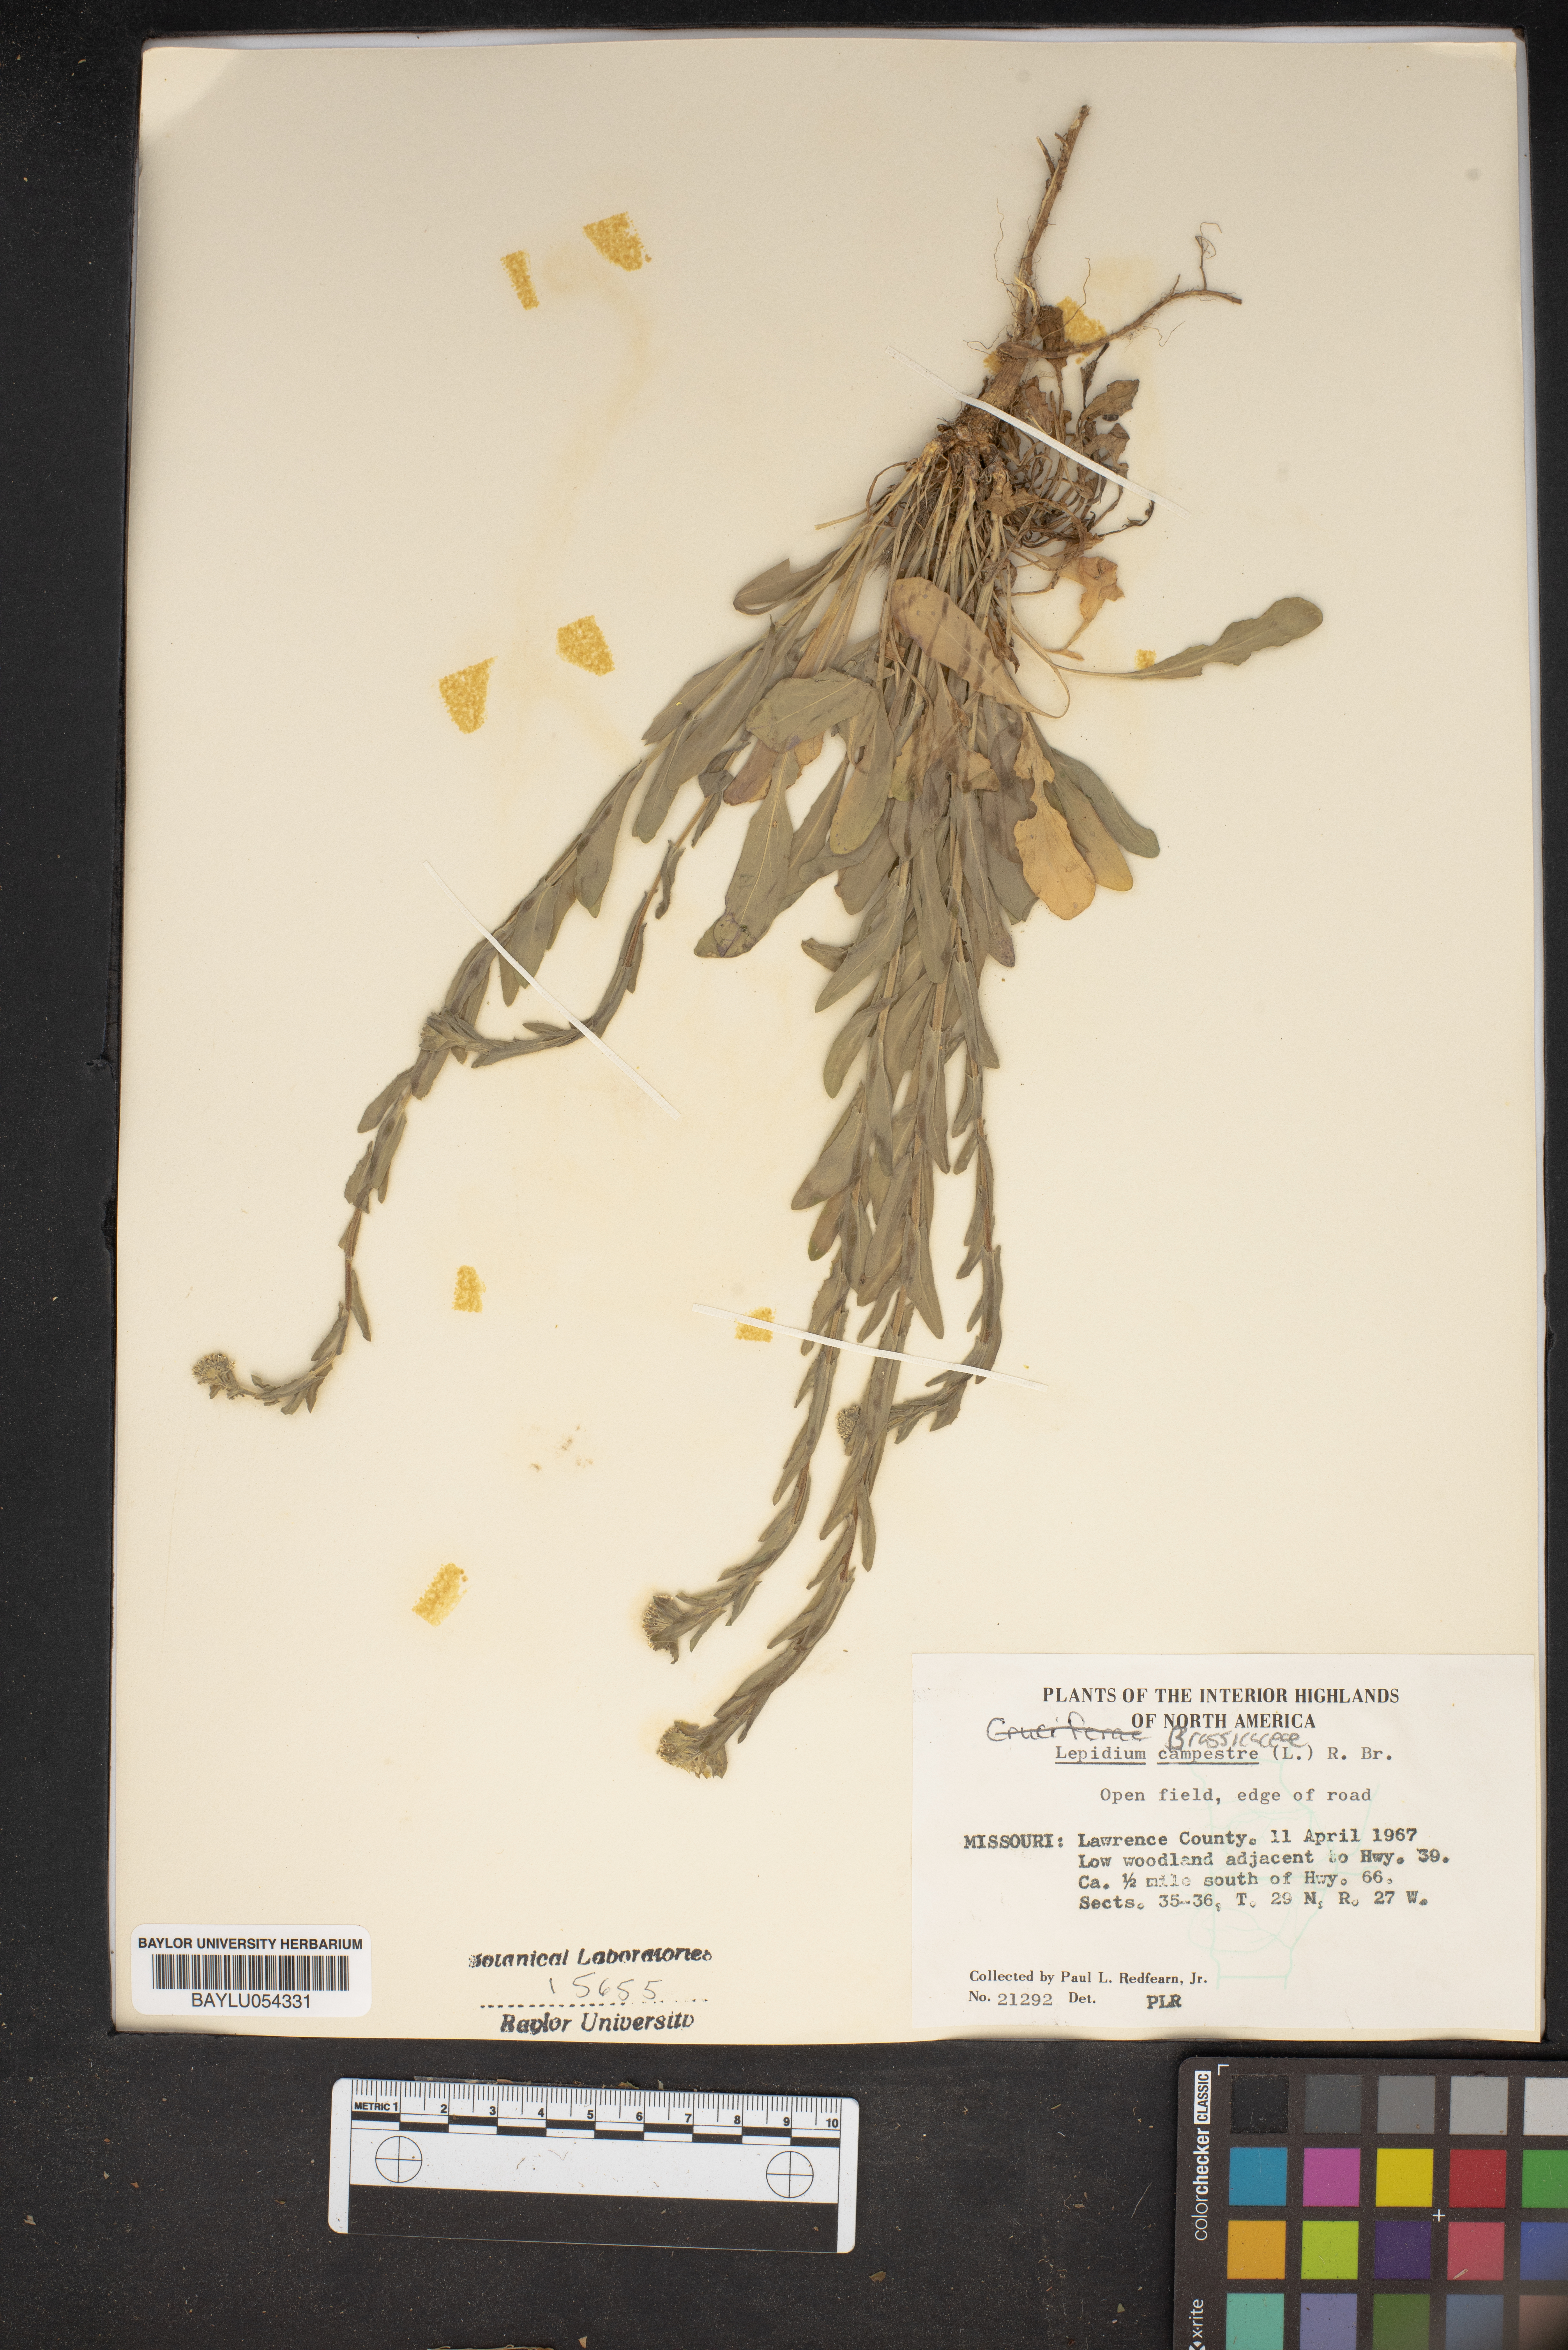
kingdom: Plantae
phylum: Tracheophyta
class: Magnoliopsida
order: Brassicales
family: Brassicaceae
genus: Lepidium
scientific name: Lepidium campestre
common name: Field pepperwort
